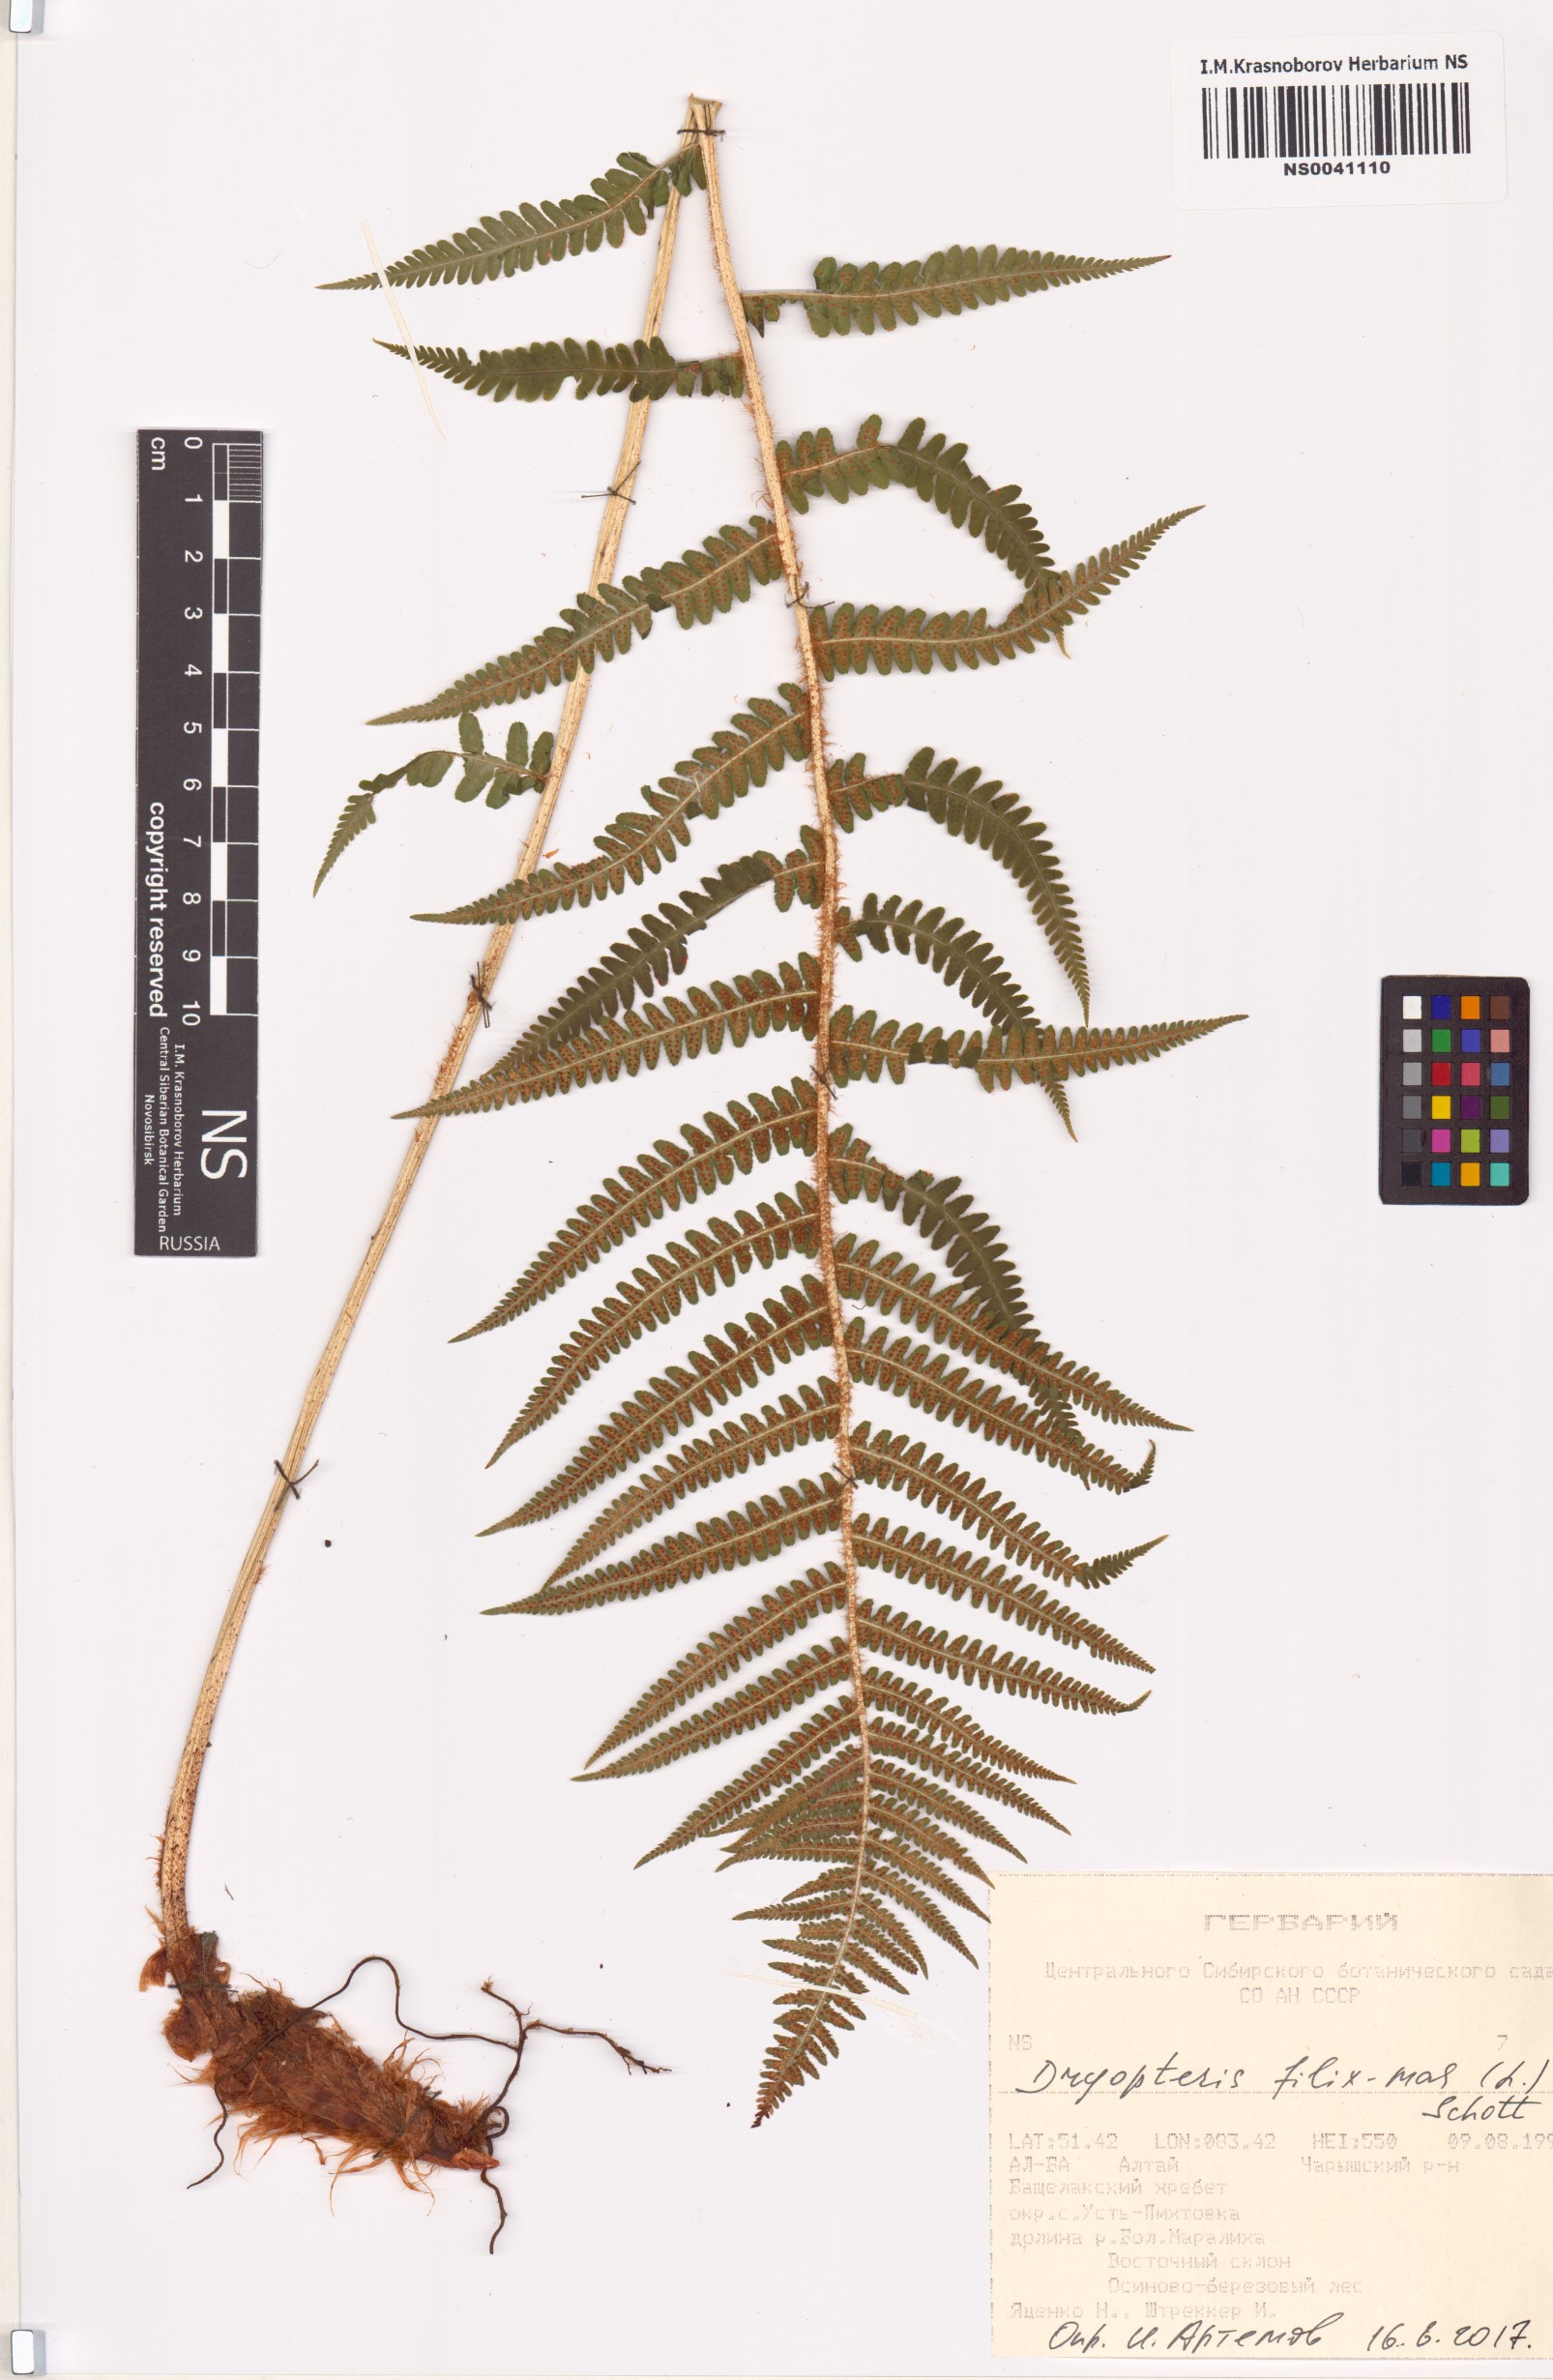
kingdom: Plantae
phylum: Tracheophyta
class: Polypodiopsida
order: Polypodiales
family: Dryopteridaceae
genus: Dryopteris
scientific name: Dryopteris filix-mas
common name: Male fern
